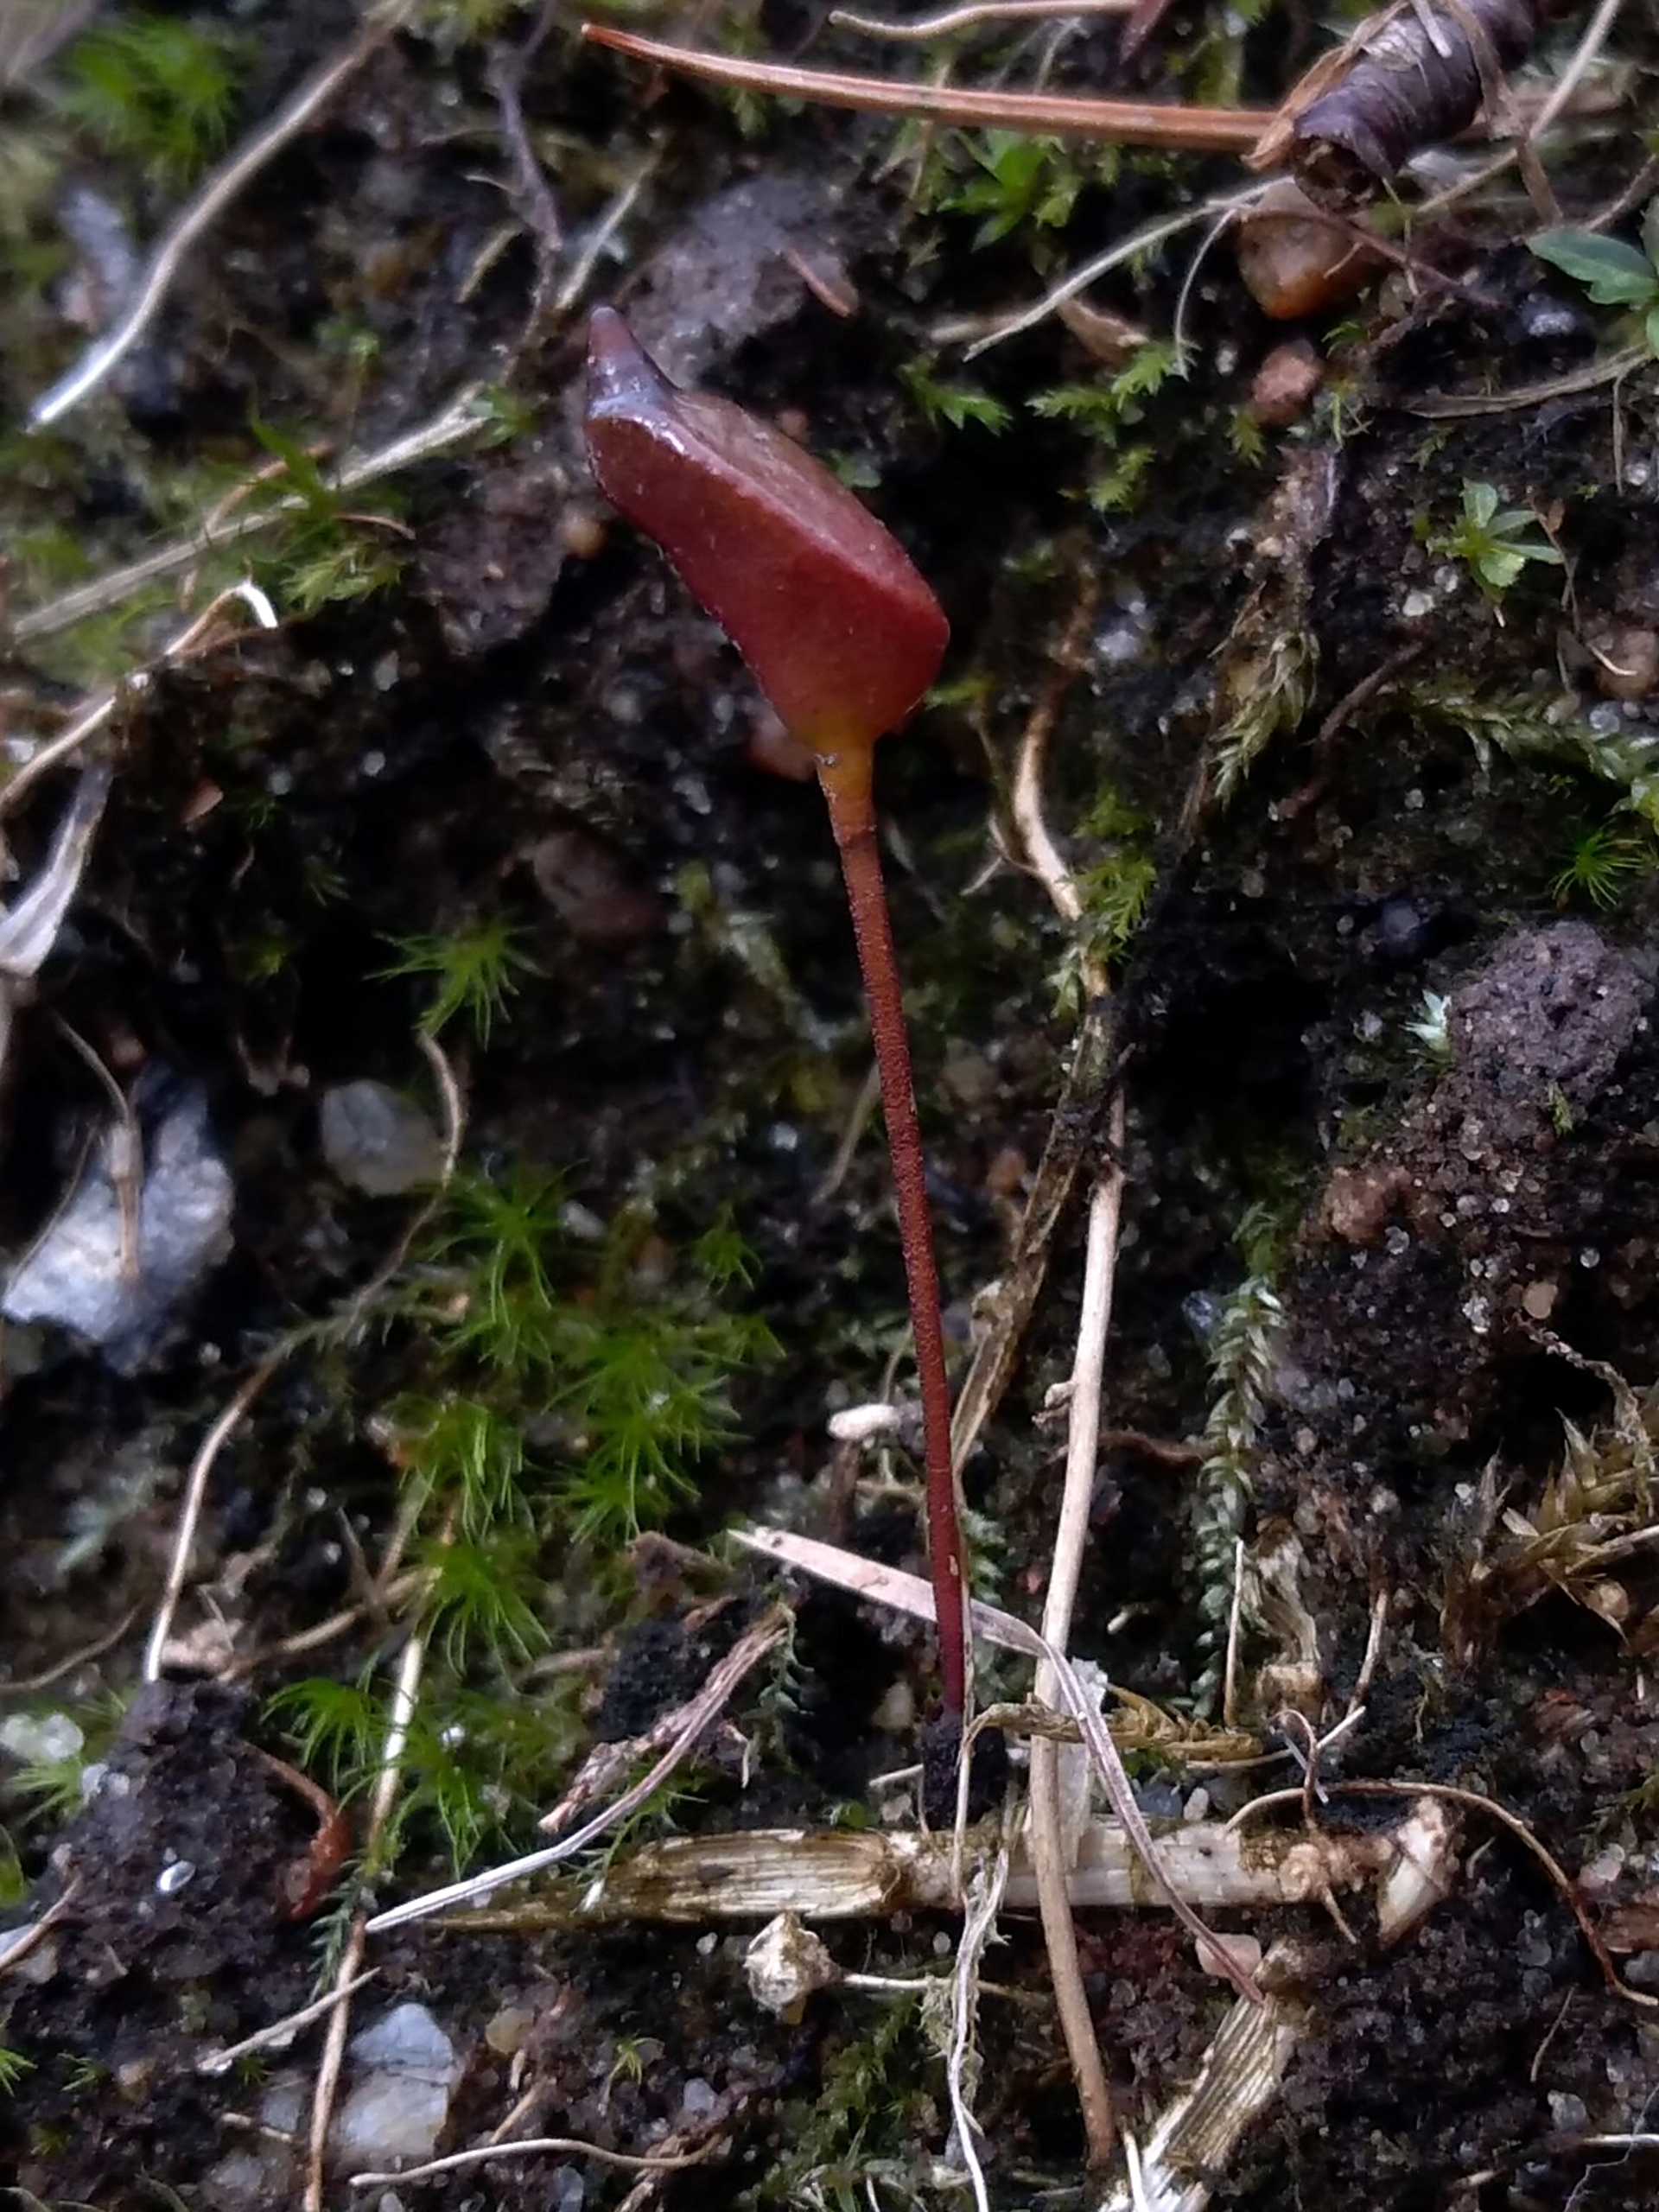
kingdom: Plantae
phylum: Bryophyta
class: Bryopsida
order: Buxbaumiales
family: Buxbaumiaceae
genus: Buxbaumia
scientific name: Buxbaumia aphylla
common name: Rundkapslet buxbaumia
